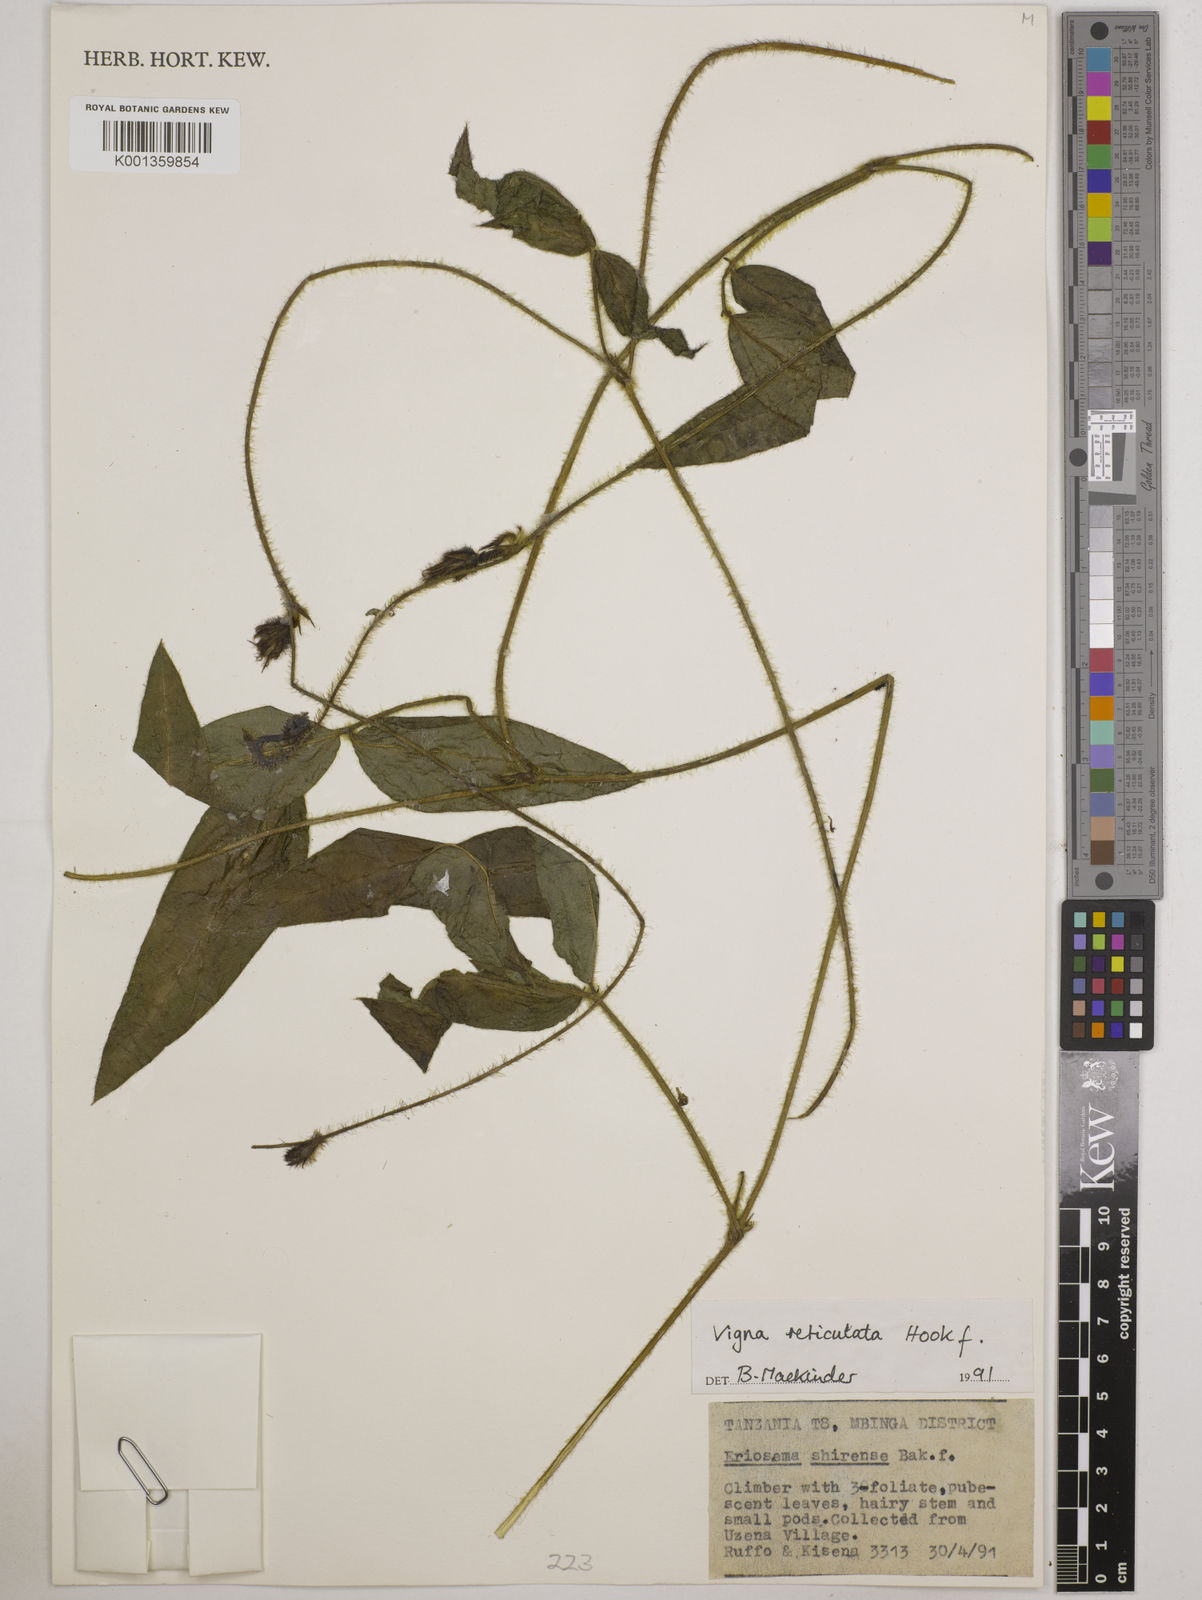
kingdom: Plantae
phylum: Tracheophyta
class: Magnoliopsida
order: Fabales
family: Fabaceae
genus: Vigna
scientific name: Vigna reticulata
